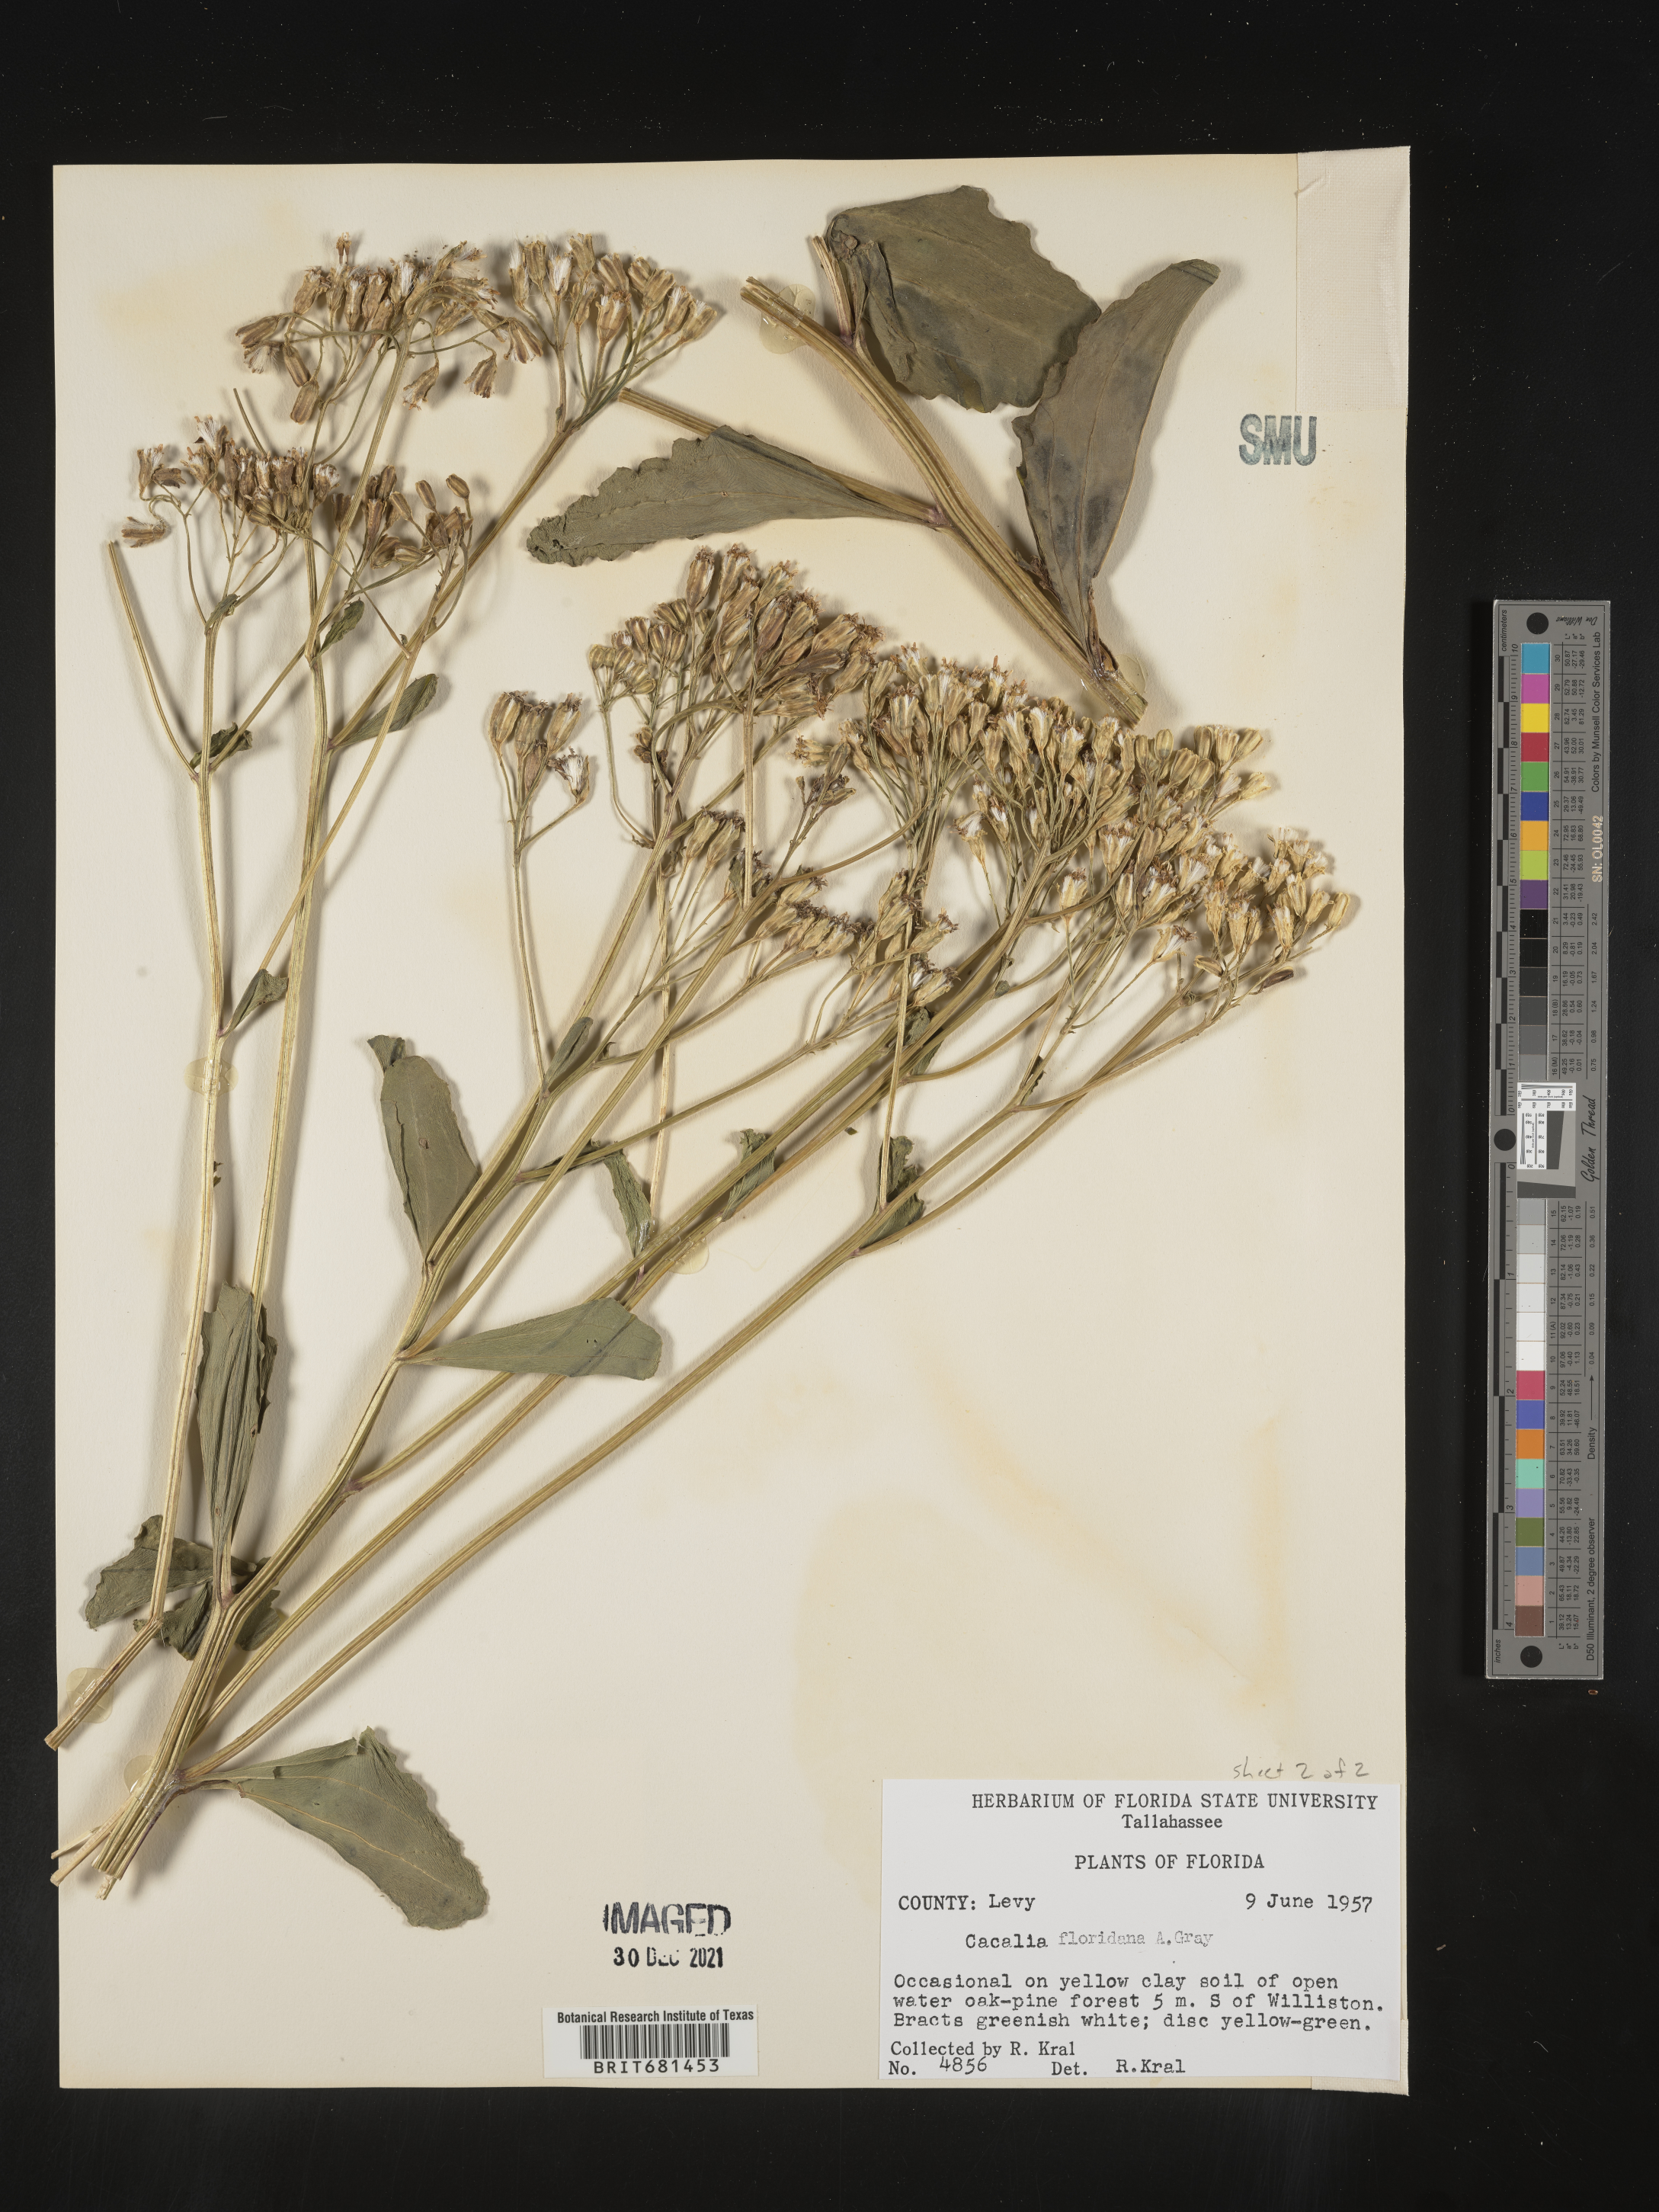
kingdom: Plantae
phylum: Tracheophyta
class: Magnoliopsida
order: Asterales
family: Asteraceae
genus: Arnoglossum
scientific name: Arnoglossum floridanum
